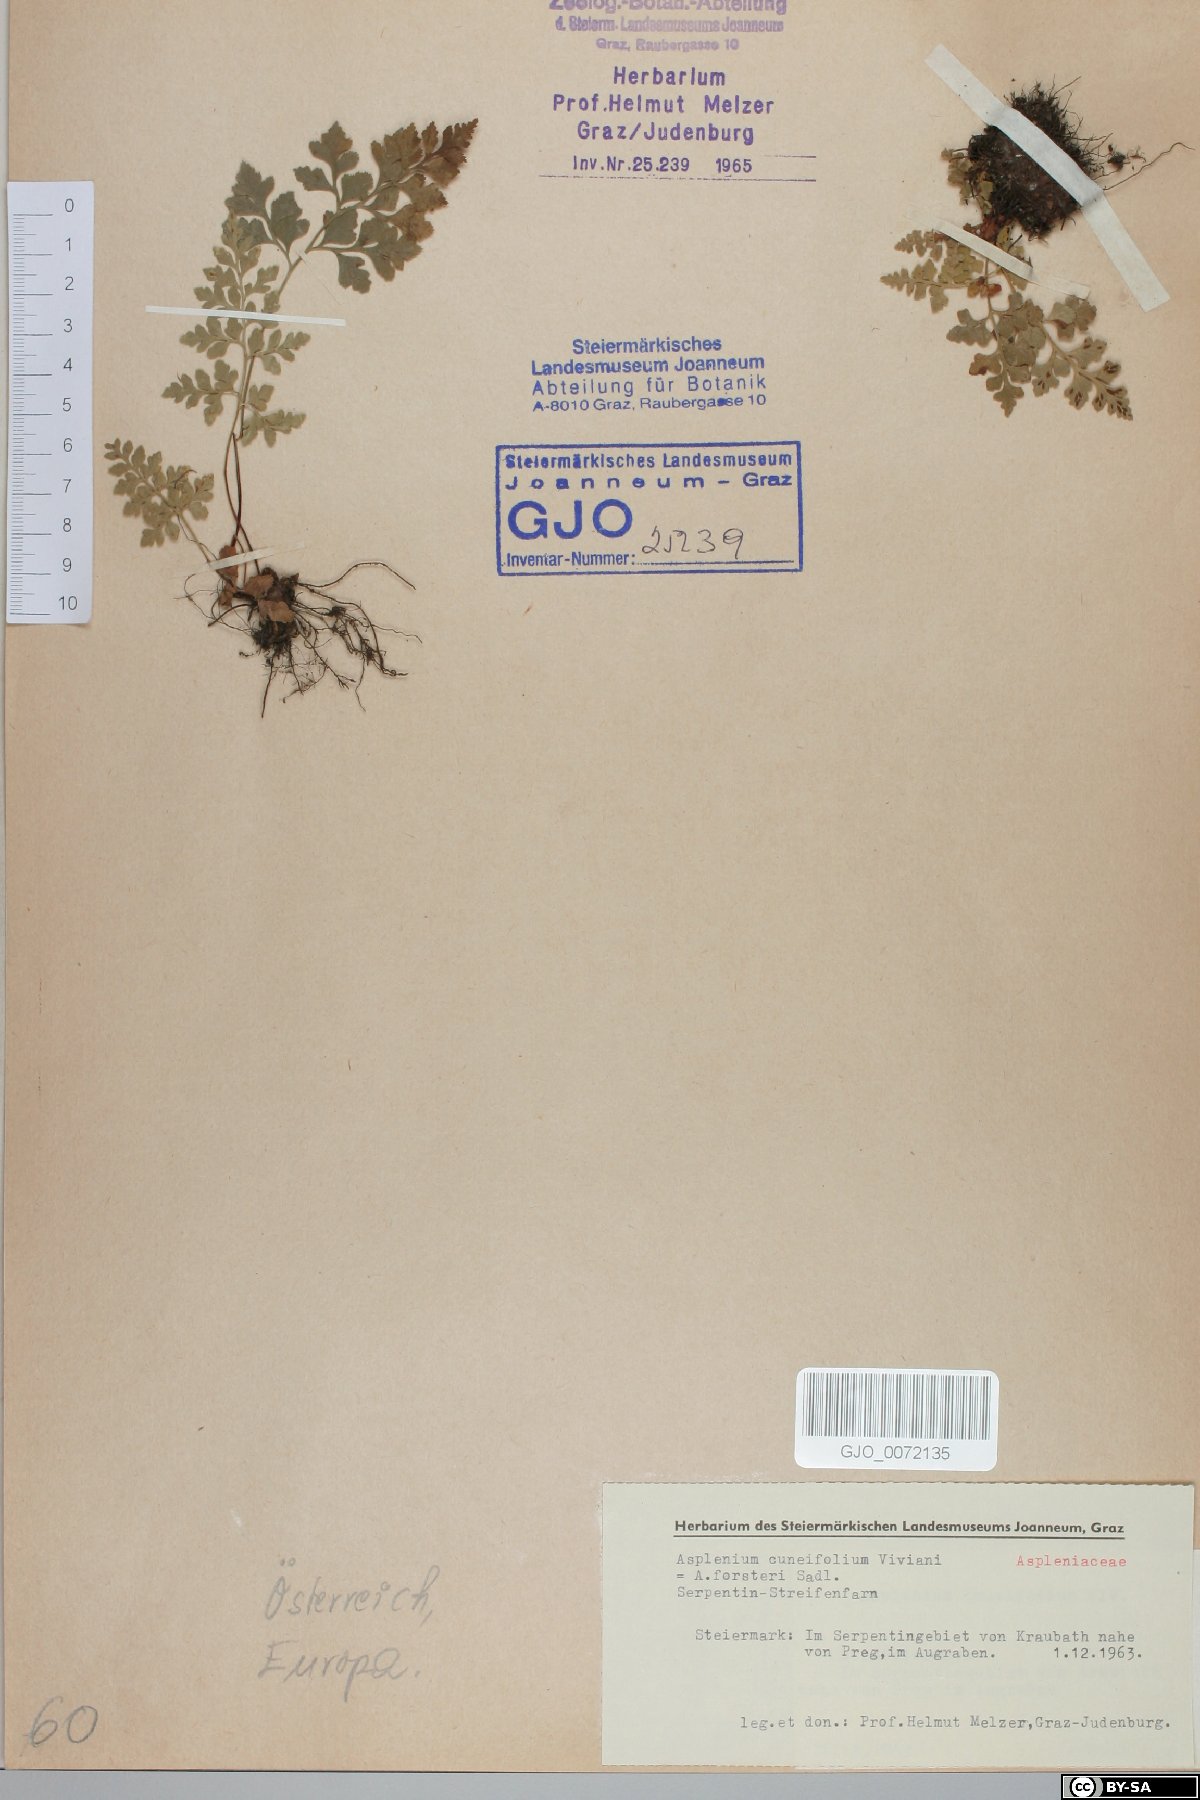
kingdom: Plantae
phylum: Tracheophyta
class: Polypodiopsida
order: Polypodiales
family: Aspleniaceae
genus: Asplenium
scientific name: Asplenium cuneifolium
